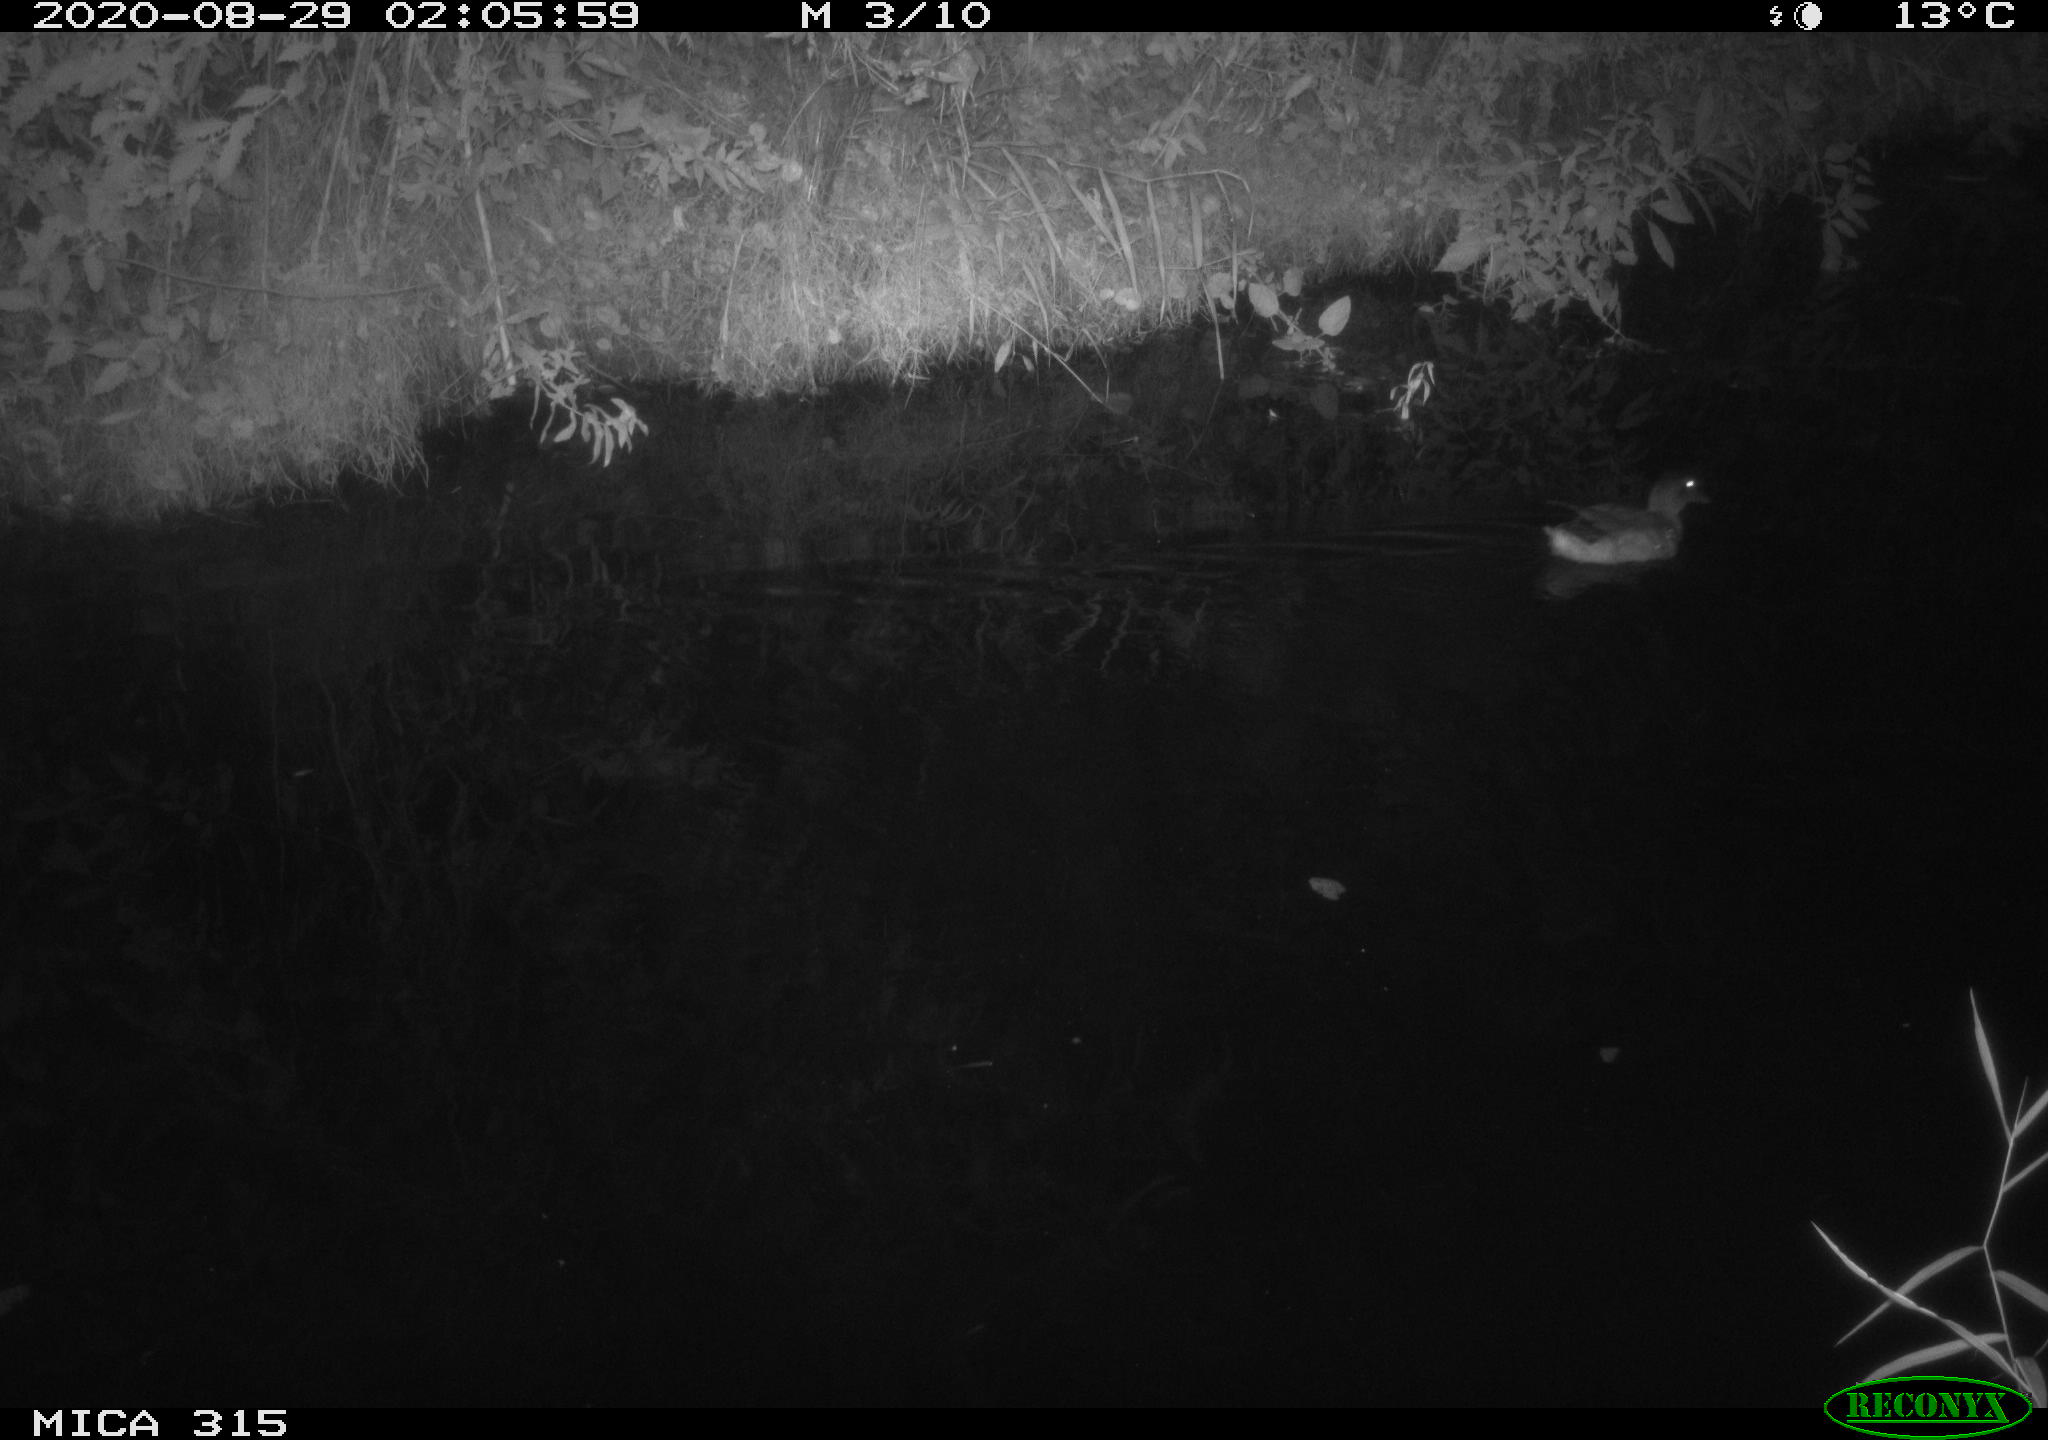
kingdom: Animalia
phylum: Chordata
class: Aves
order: Anseriformes
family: Anatidae
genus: Anas
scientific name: Anas platyrhynchos
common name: Mallard
